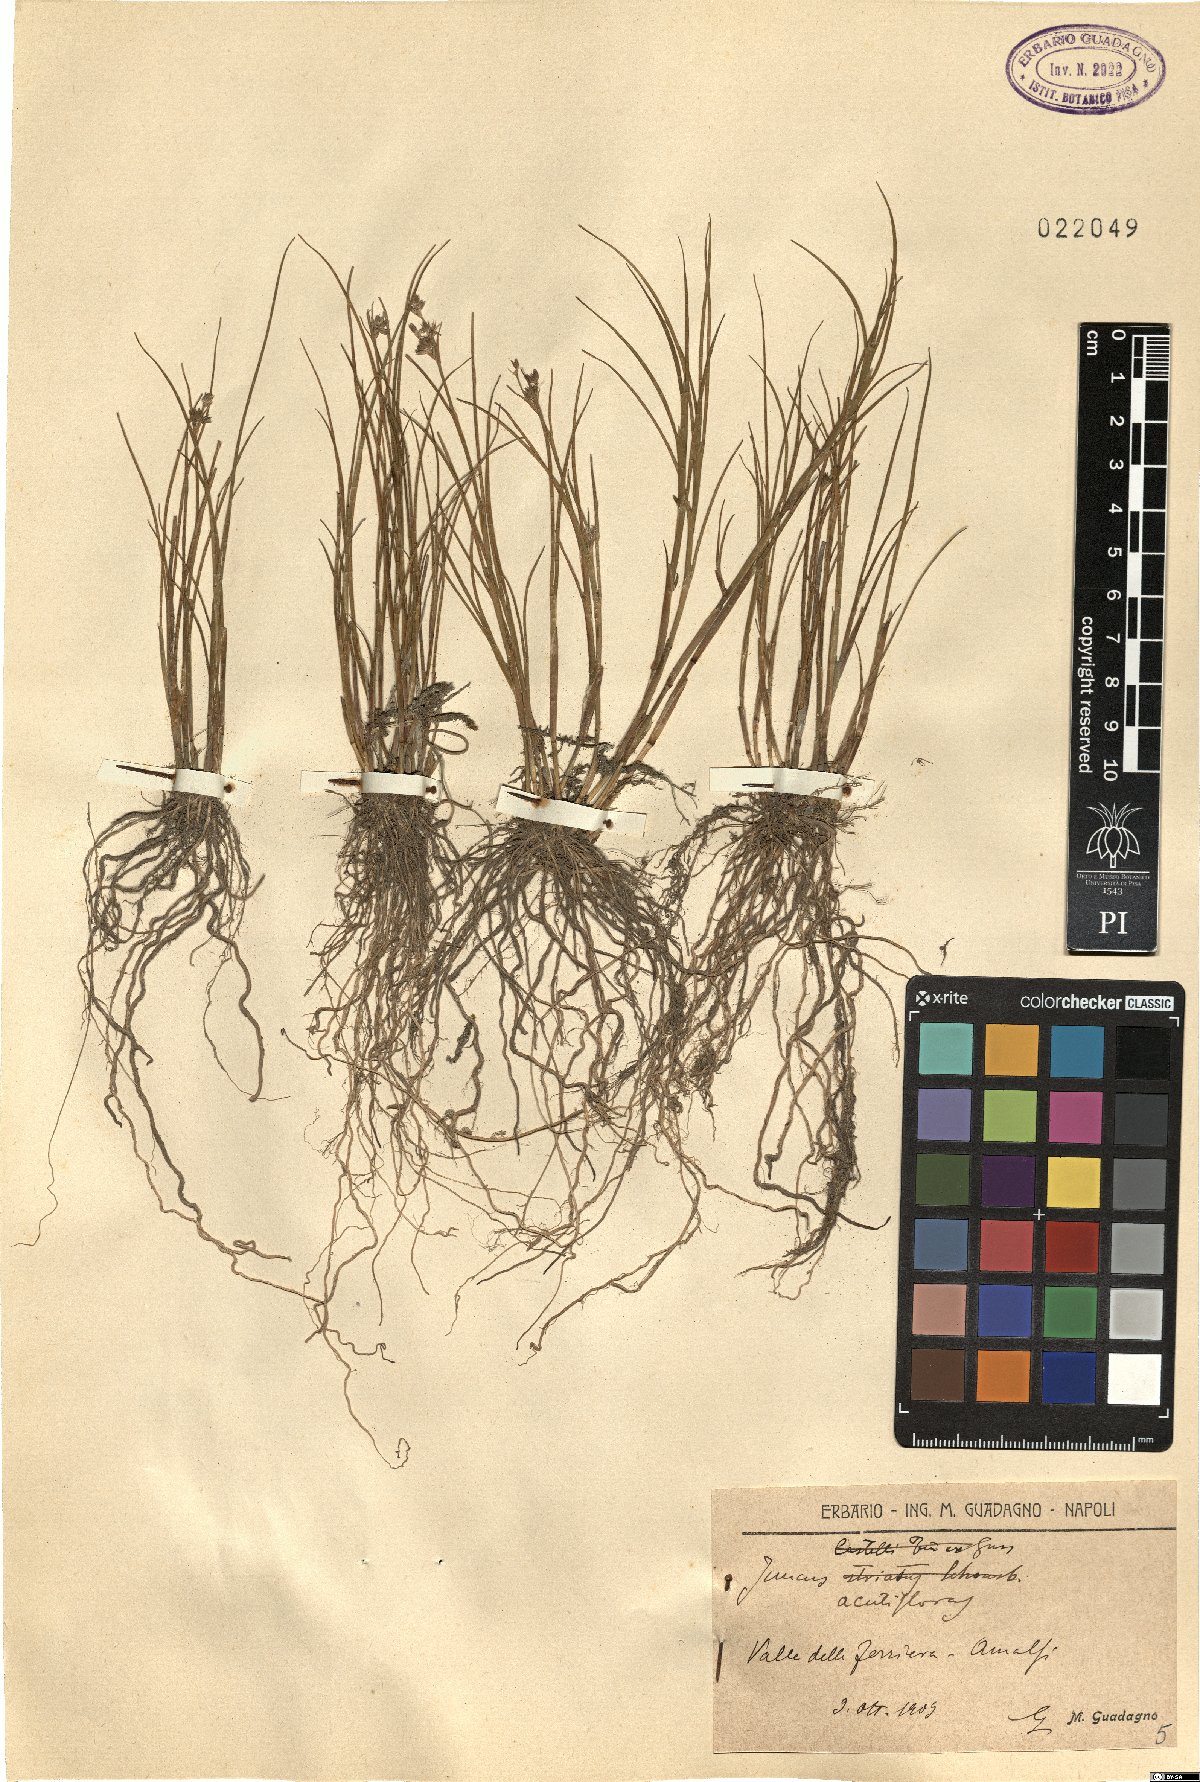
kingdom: Plantae
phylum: Tracheophyta
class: Liliopsida
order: Poales
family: Juncaceae
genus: Juncus
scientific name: Juncus acutiflorus
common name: Sharp-flowered rush
